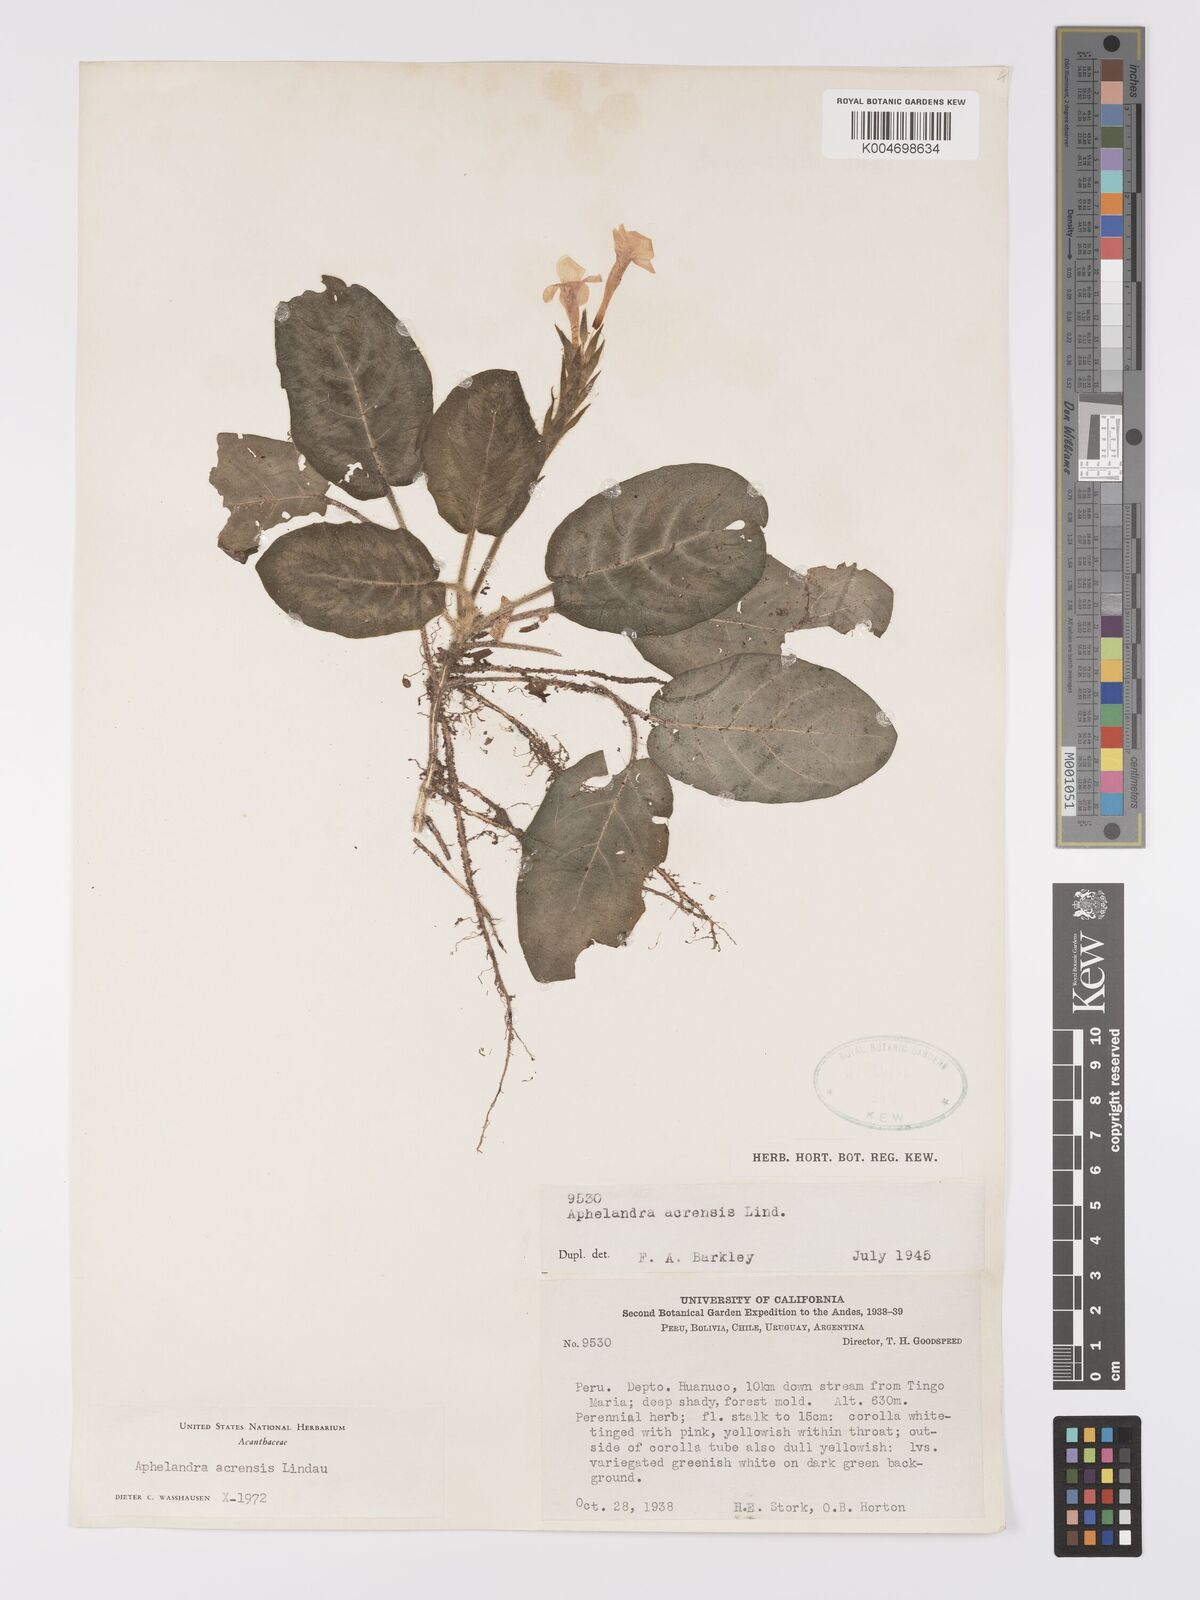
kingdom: Plantae
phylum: Tracheophyta
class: Magnoliopsida
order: Lamiales
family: Acanthaceae
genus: Aphelandra
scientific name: Aphelandra acrensis
